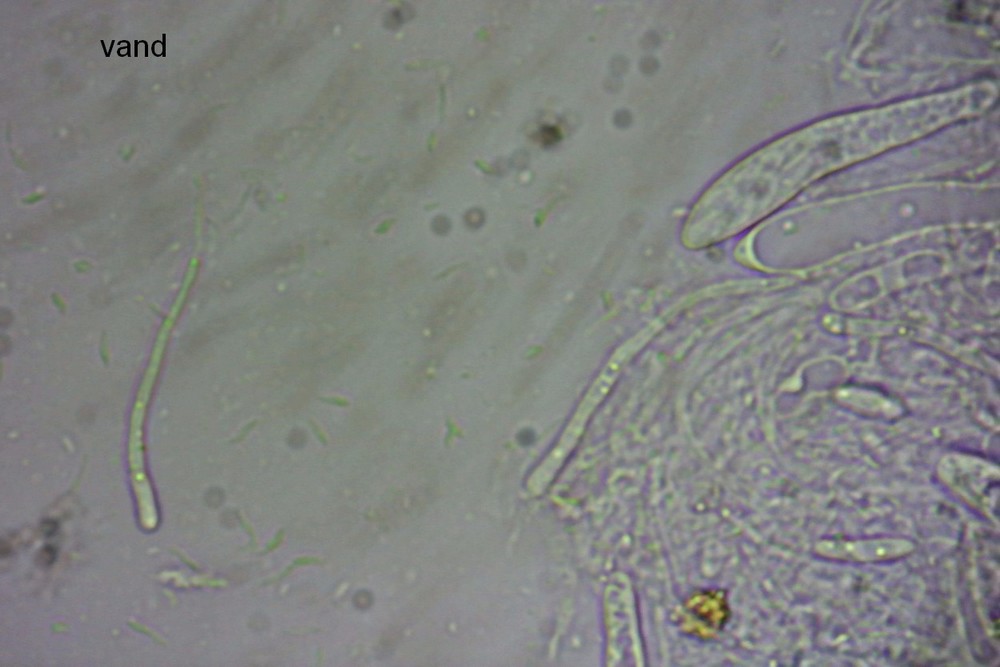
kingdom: Fungi
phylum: Ascomycota
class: Leotiomycetes
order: Helotiales
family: Hyaloscyphaceae
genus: Hyaloscypha
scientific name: Hyaloscypha vitreola
